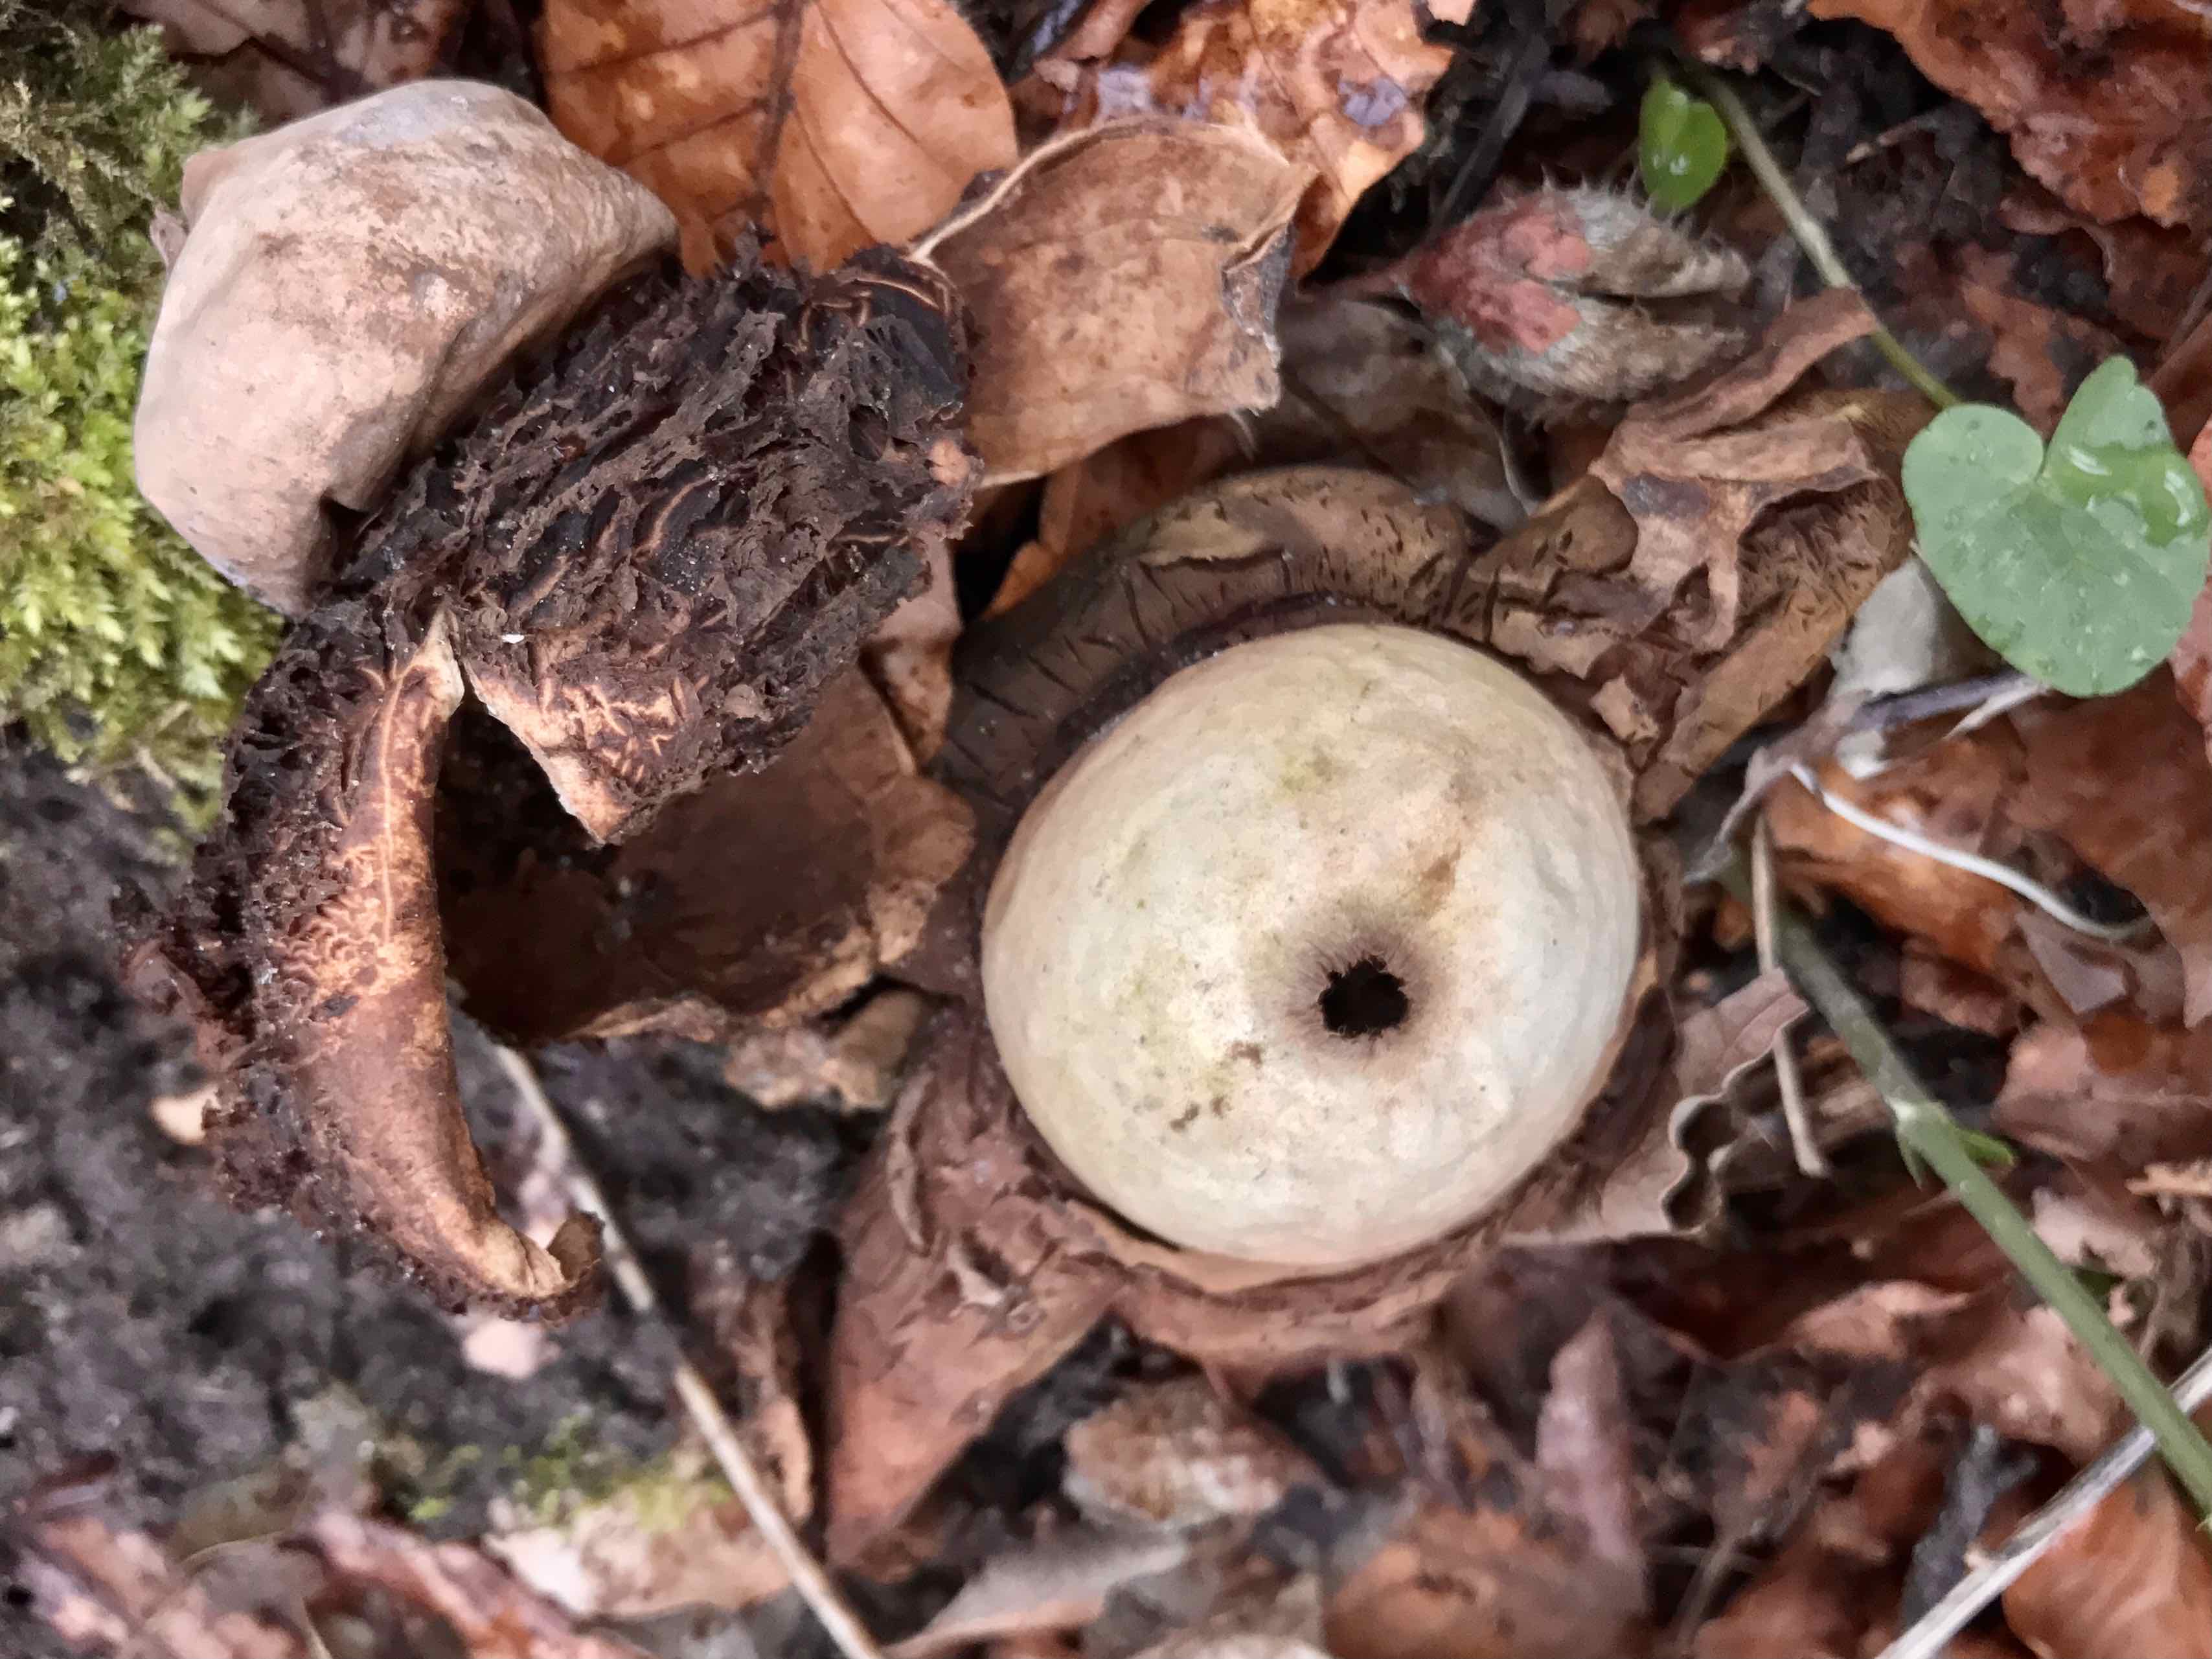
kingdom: Fungi
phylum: Basidiomycota
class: Agaricomycetes
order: Geastrales
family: Geastraceae
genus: Geastrum
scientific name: Geastrum michelianum
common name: kødet stjernebold
